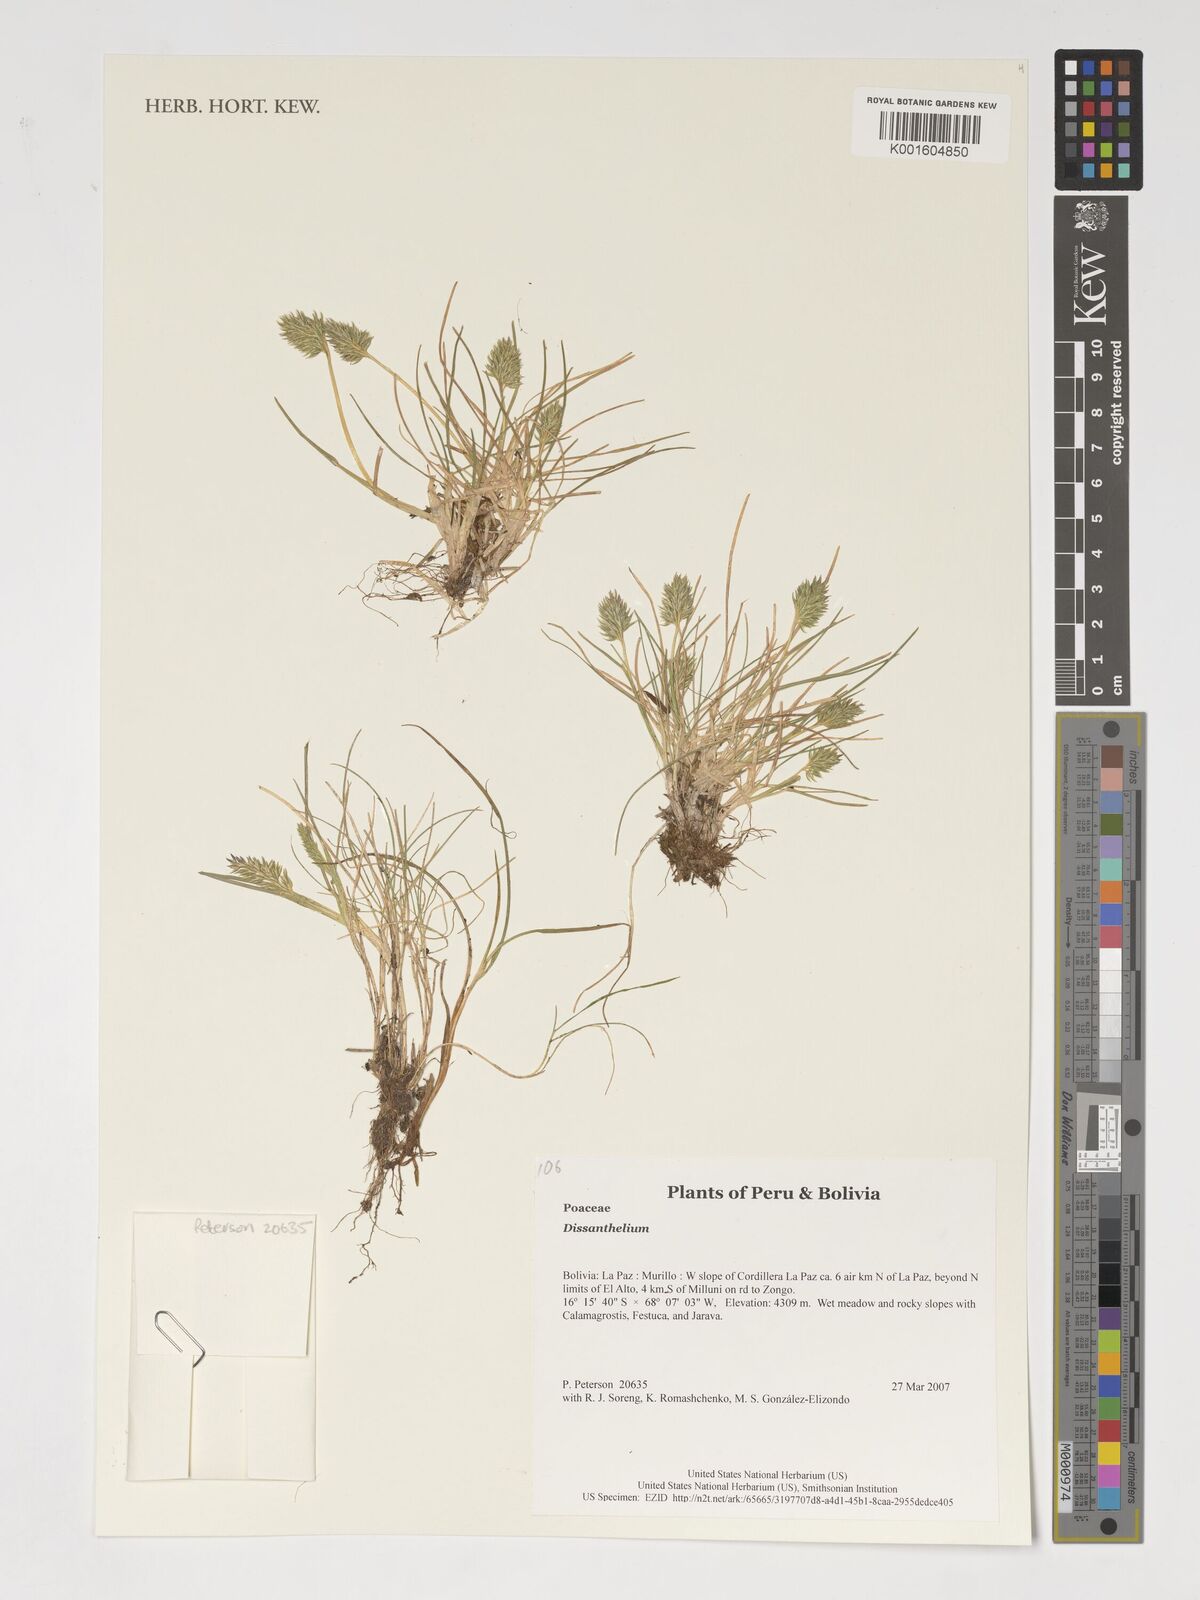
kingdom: Plantae
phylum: Tracheophyta
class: Liliopsida
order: Poales
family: Poaceae
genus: Poa
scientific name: Poa
